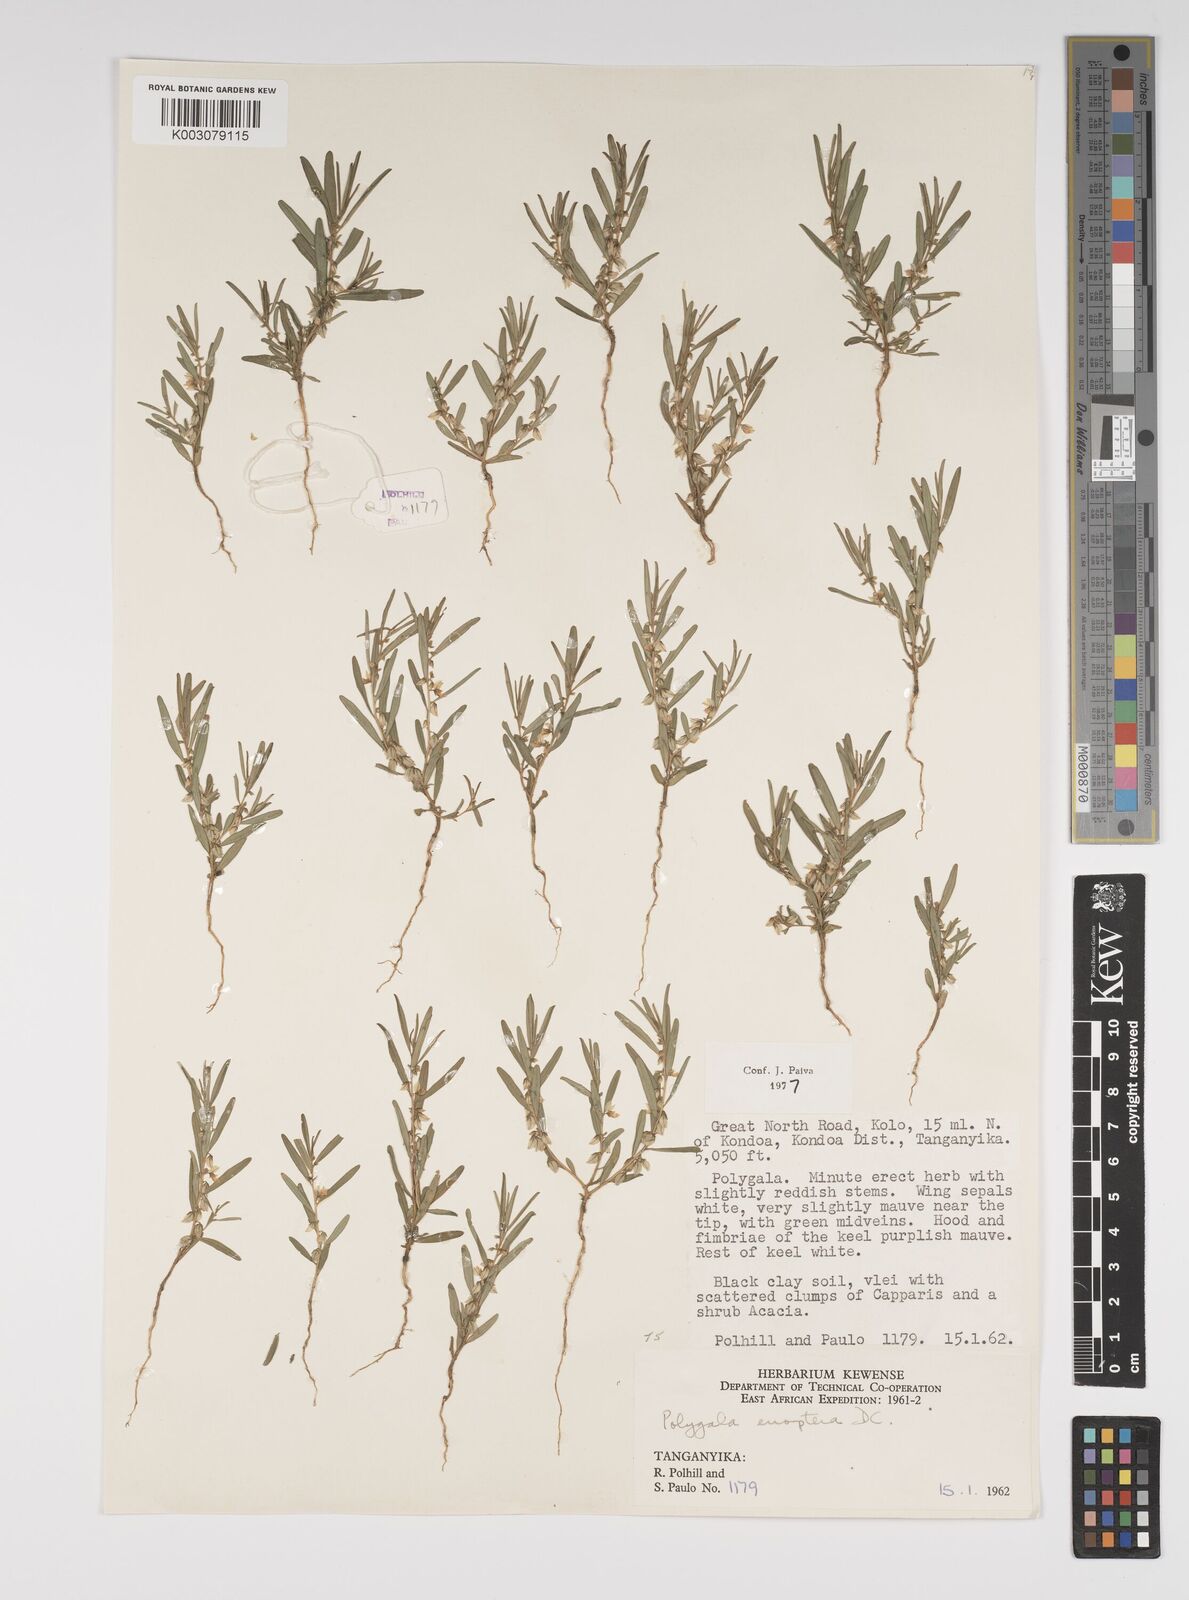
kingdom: Plantae
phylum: Tracheophyta
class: Magnoliopsida
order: Fabales
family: Polygalaceae
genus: Polygala
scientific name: Polygala erioptera
